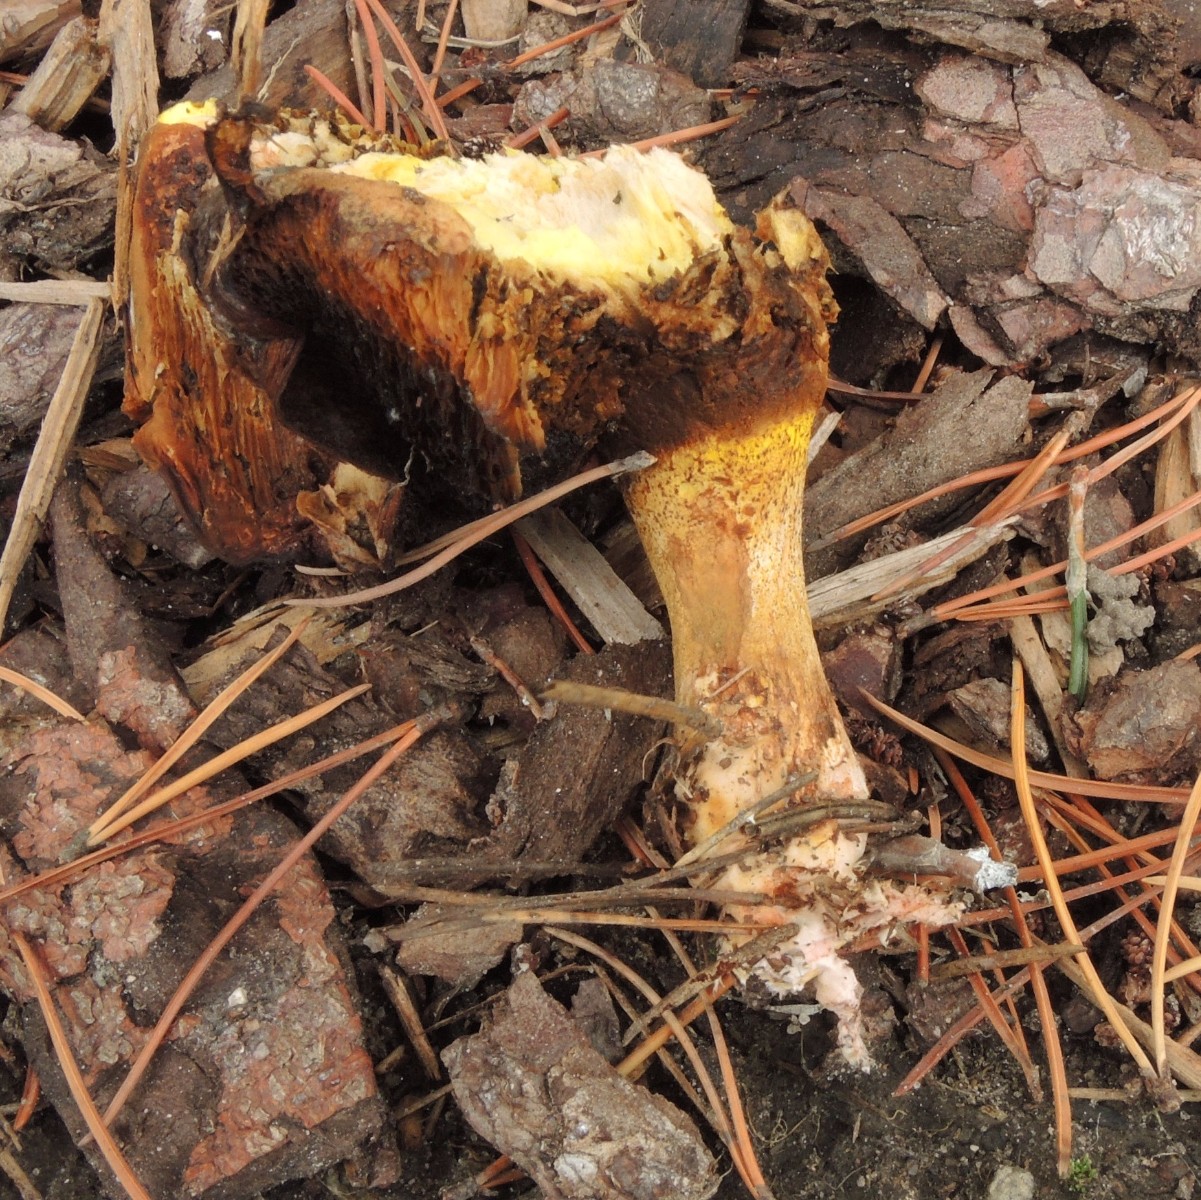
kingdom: Fungi
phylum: Basidiomycota
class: Agaricomycetes
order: Boletales
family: Suillaceae
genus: Suillus
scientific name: Suillus collinitus
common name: rosafodet slimrørhat
